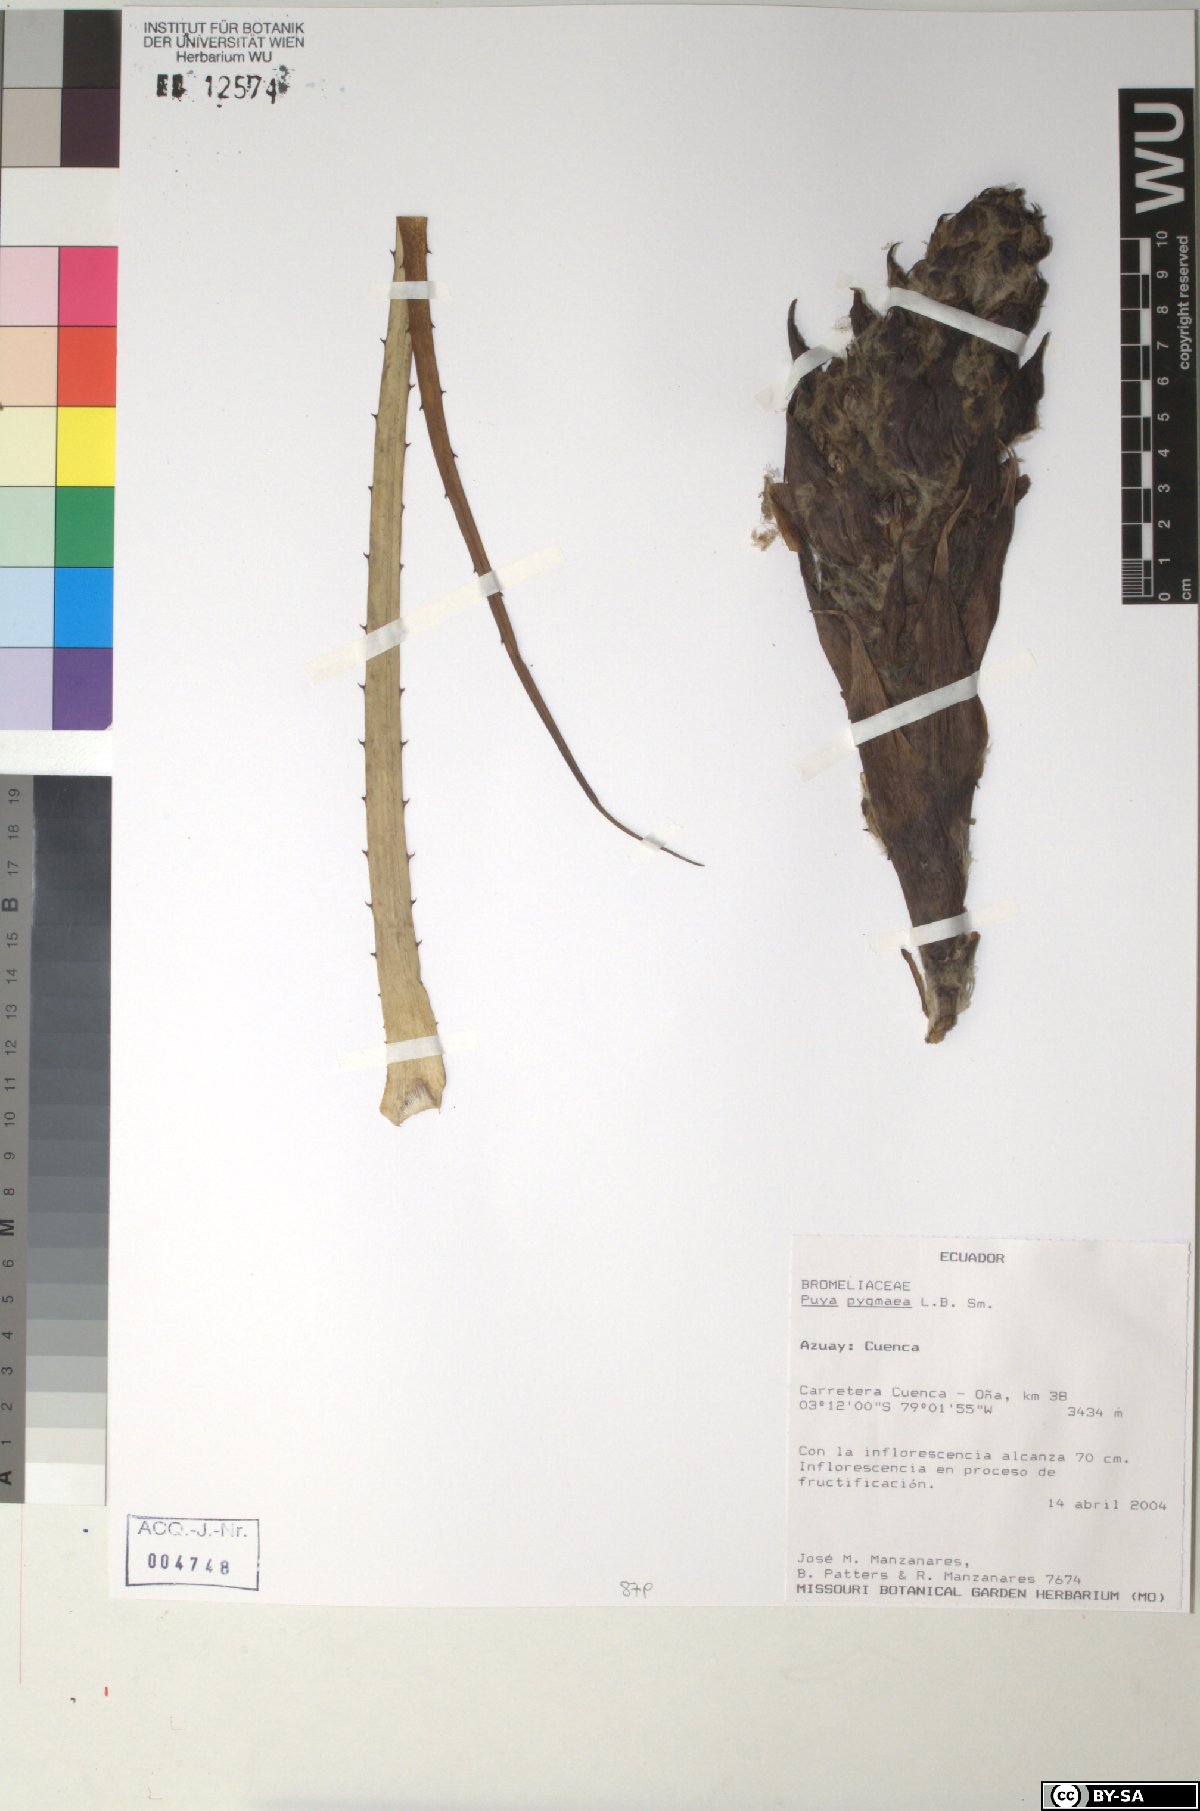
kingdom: Plantae
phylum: Tracheophyta
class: Liliopsida
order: Poales
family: Bromeliaceae
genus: Puya
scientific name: Puya pygmaea
